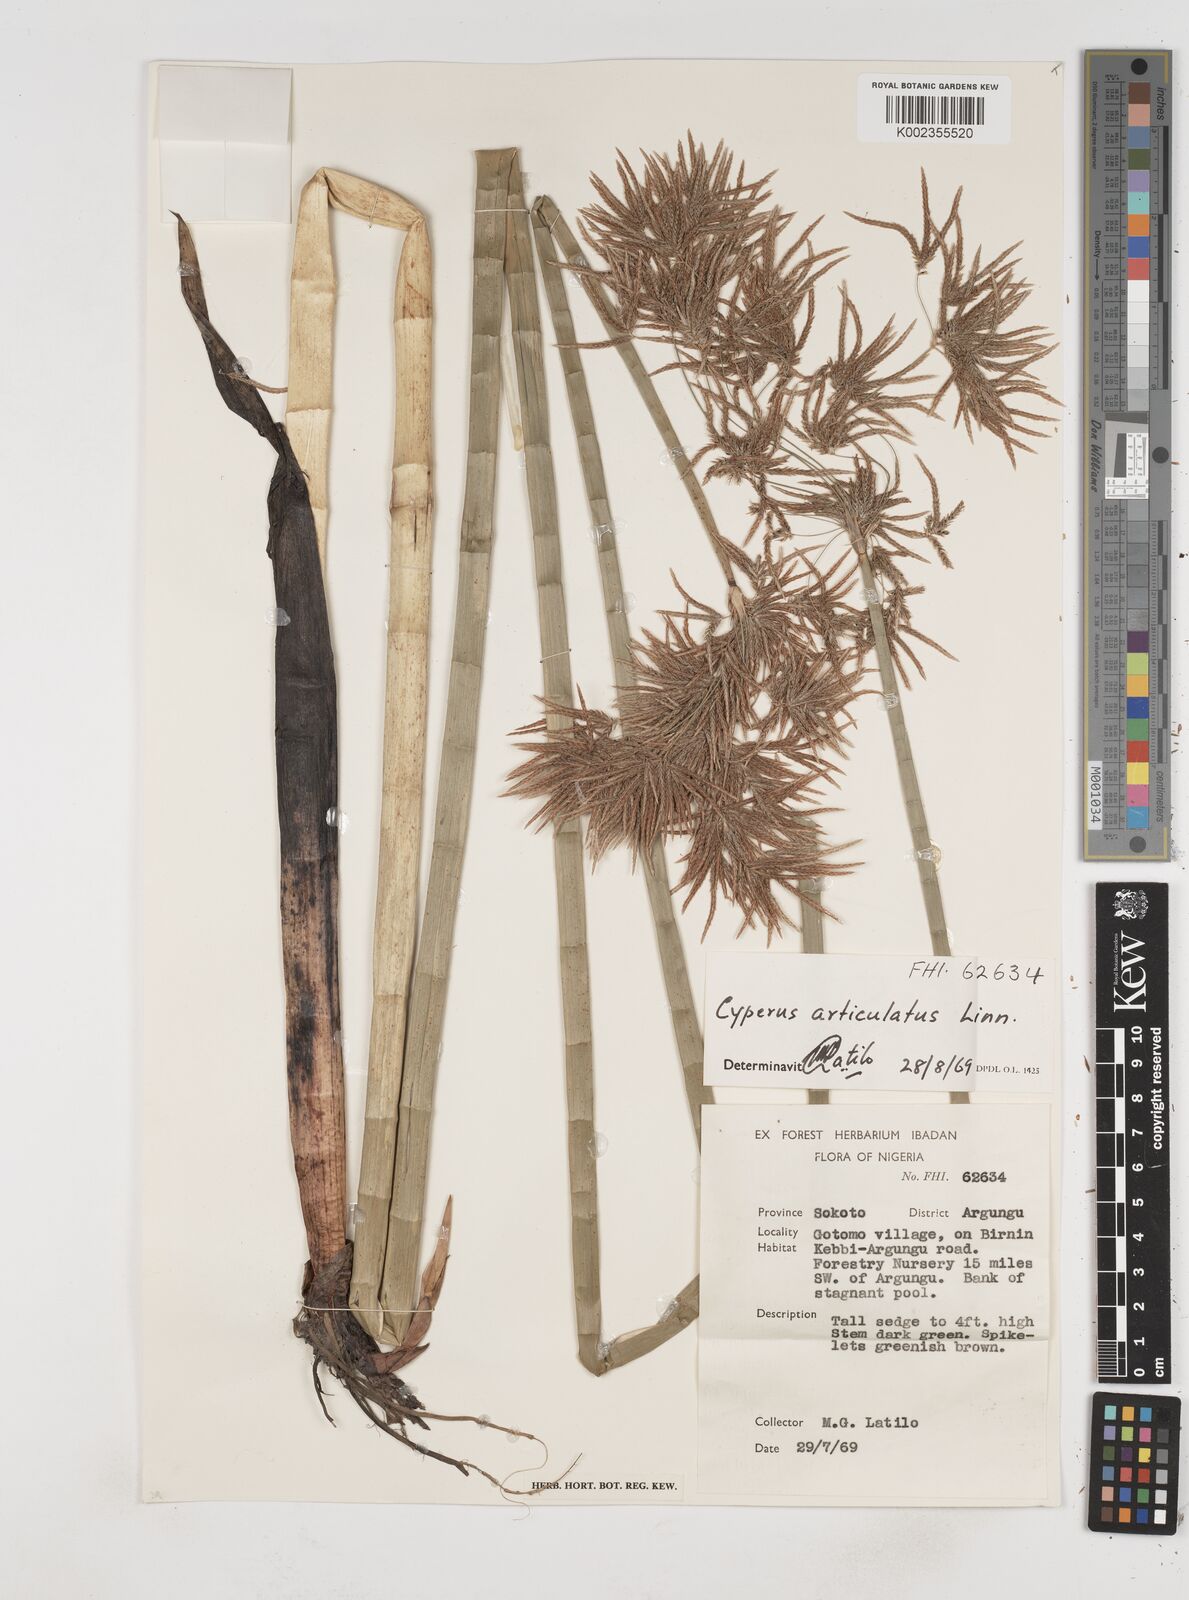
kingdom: Plantae
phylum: Tracheophyta
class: Liliopsida
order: Poales
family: Cyperaceae
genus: Cyperus
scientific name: Cyperus articulatus
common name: Jointed flatsedge
